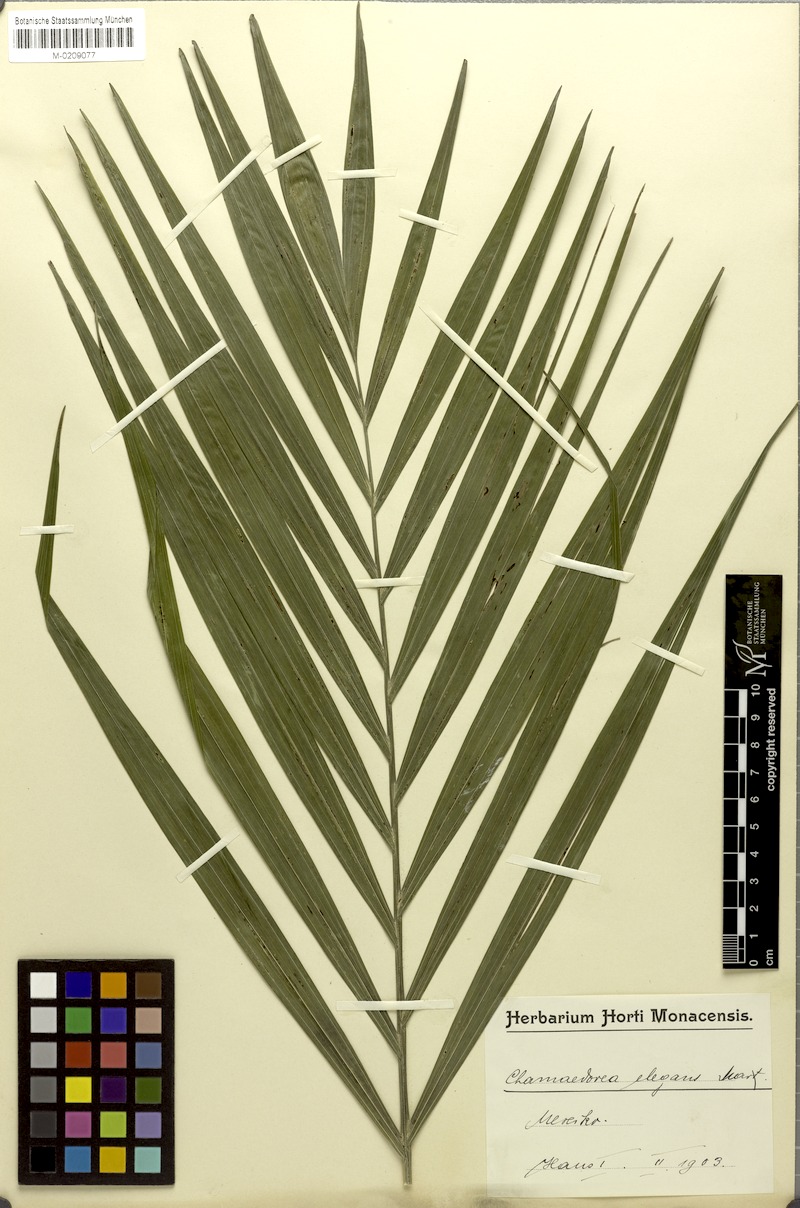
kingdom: Plantae
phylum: Tracheophyta
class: Liliopsida
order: Arecales
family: Arecaceae
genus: Chamaedorea
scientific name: Chamaedorea elegans
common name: Good-luck palm
